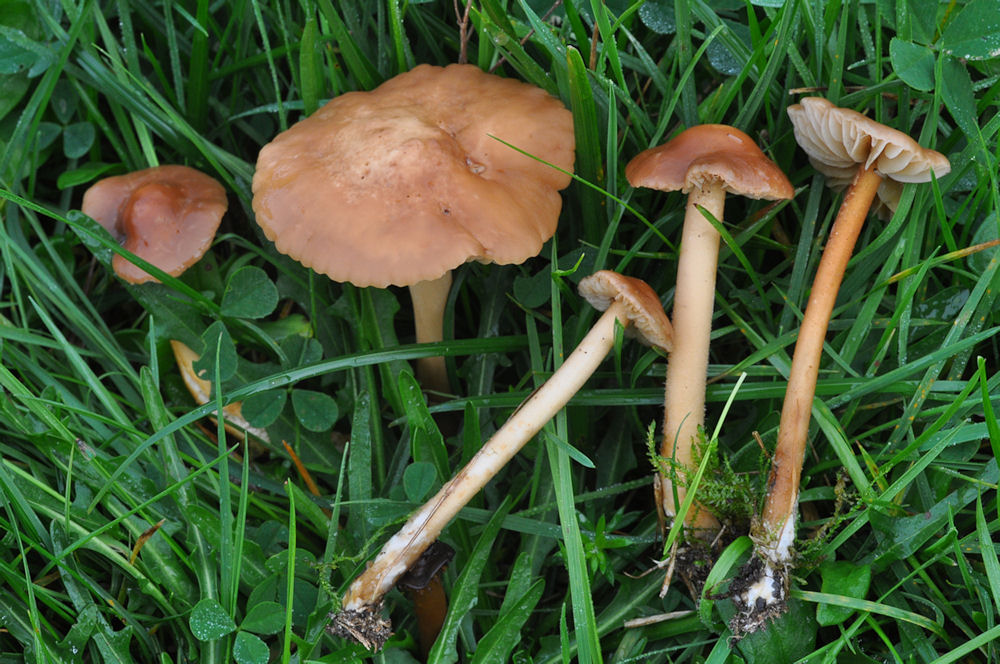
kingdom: Fungi
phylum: Basidiomycota
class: Agaricomycetes
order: Agaricales
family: Marasmiaceae
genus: Marasmius
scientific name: Marasmius oreades
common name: elledans-bruskhat
